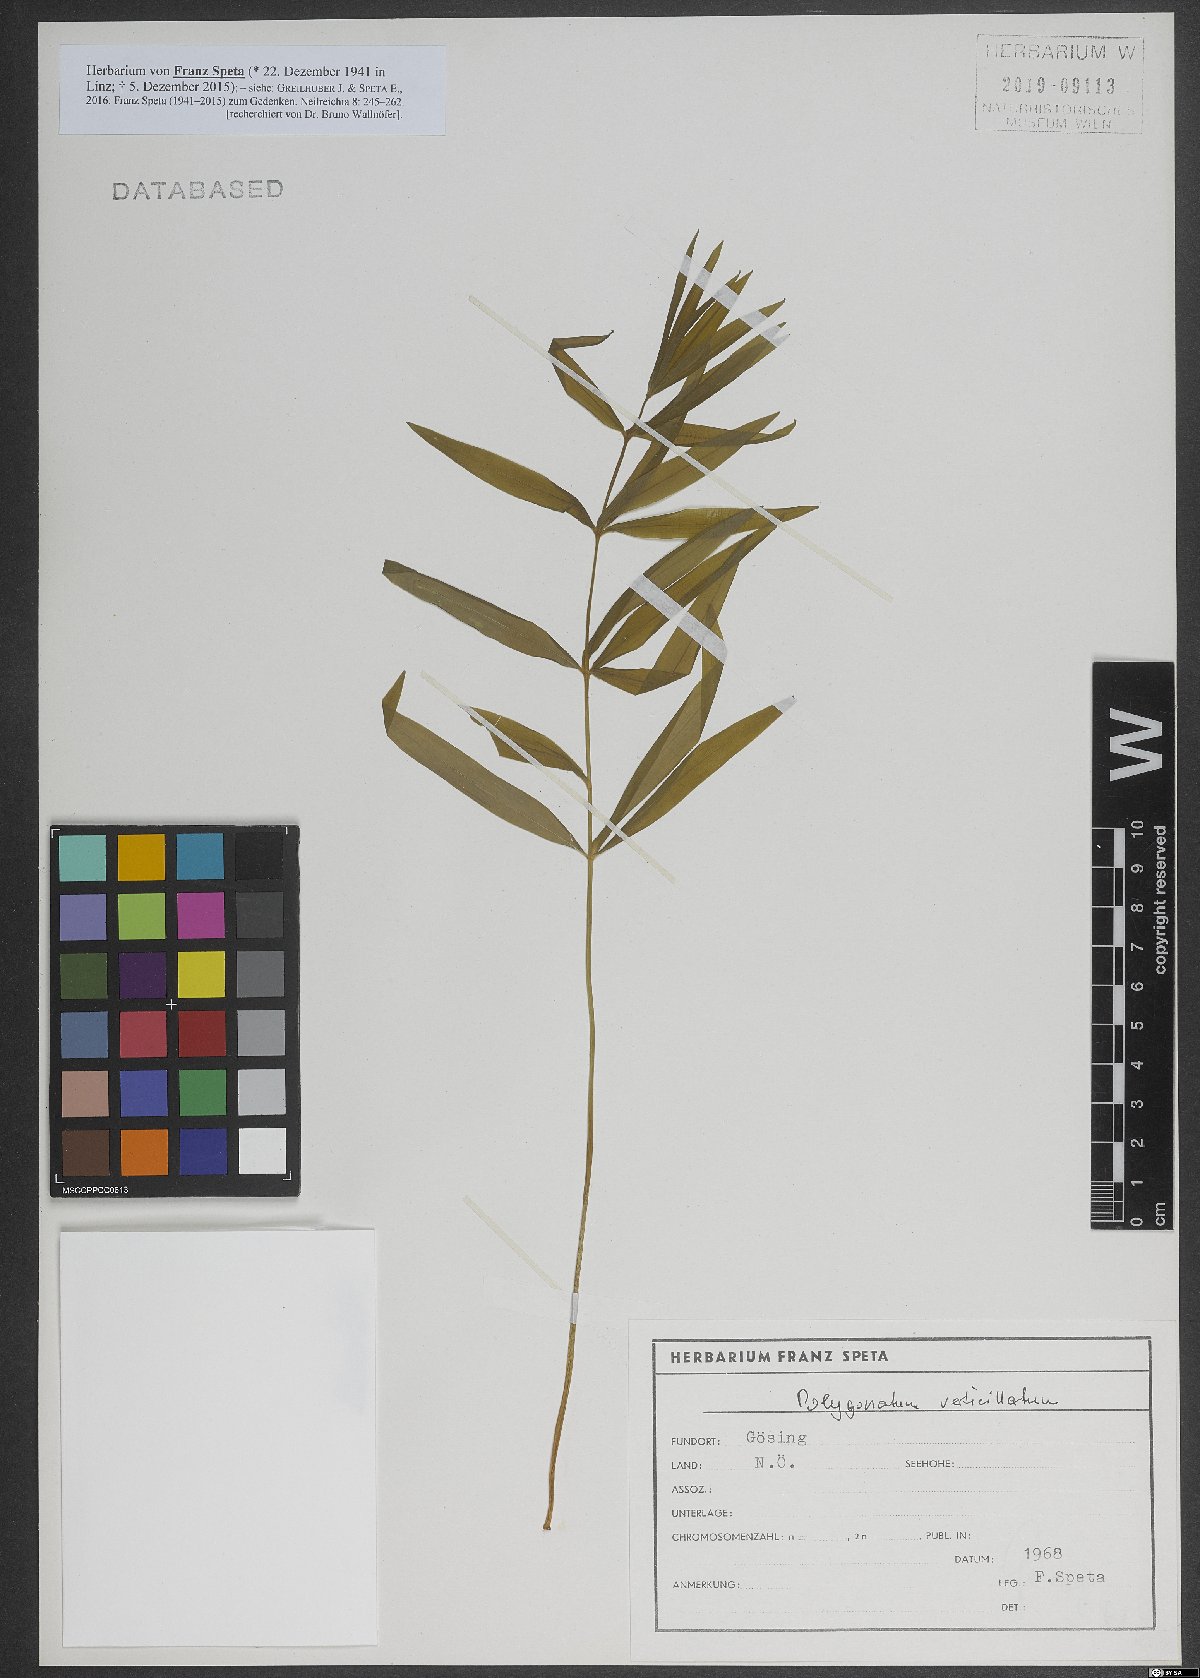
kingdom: Plantae
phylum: Tracheophyta
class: Liliopsida
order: Asparagales
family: Asparagaceae
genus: Polygonatum
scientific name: Polygonatum verticillatum
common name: Whorled solomon's-seal
